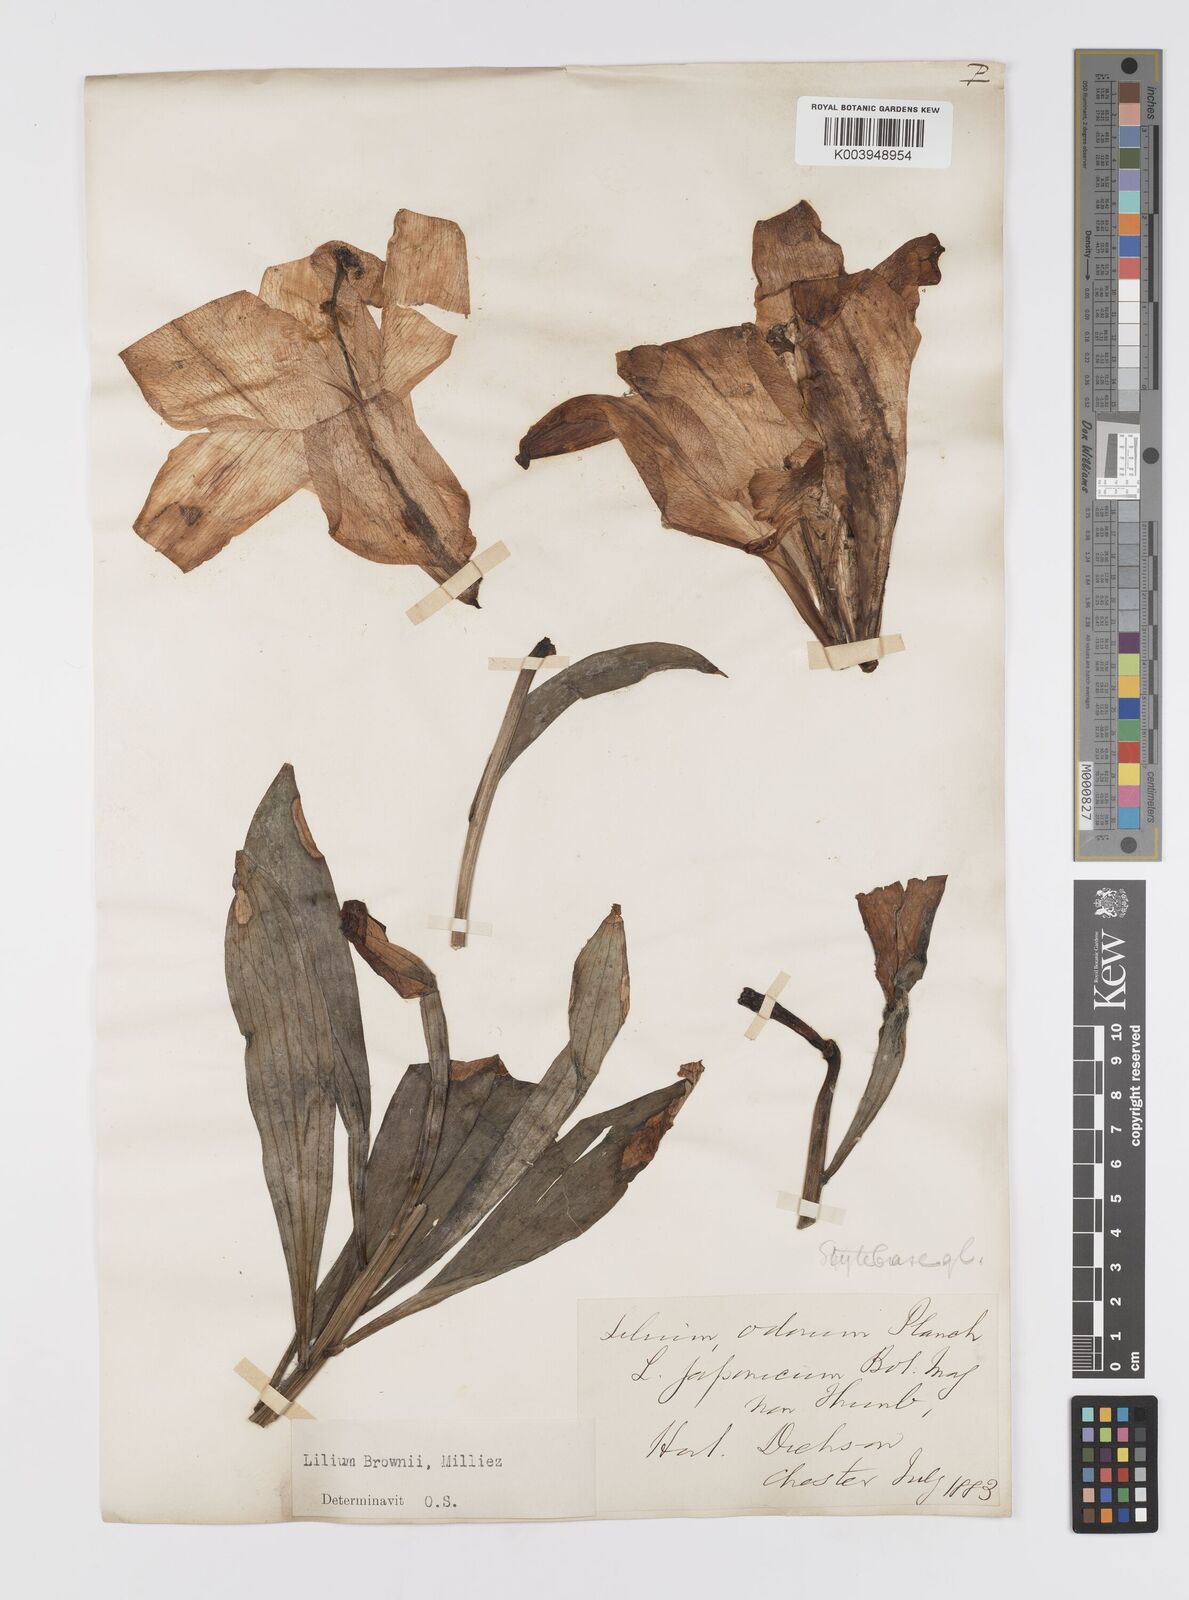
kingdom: Plantae
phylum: Tracheophyta
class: Liliopsida
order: Liliales
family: Liliaceae
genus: Lilium
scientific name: Lilium japonicum
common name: Japanese lily
